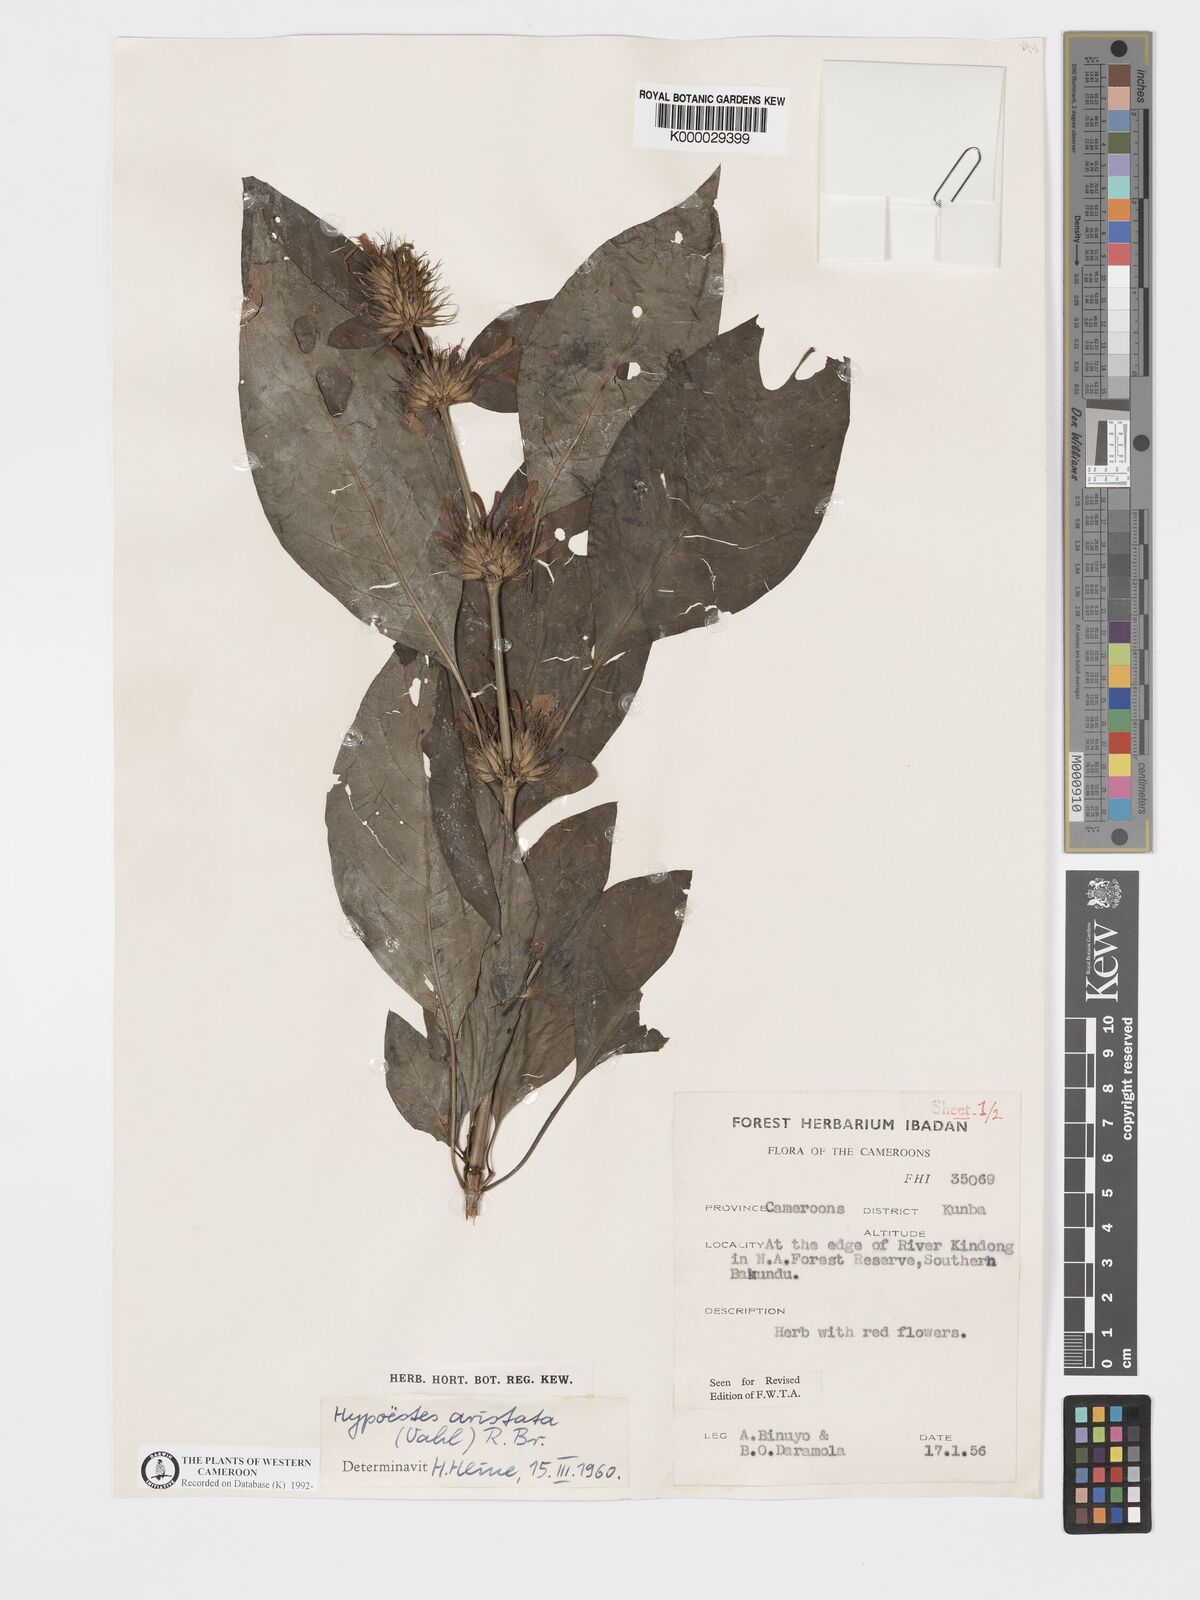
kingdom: Plantae
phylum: Tracheophyta
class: Magnoliopsida
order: Lamiales
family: Acanthaceae
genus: Hypoestes
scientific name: Hypoestes aristata
